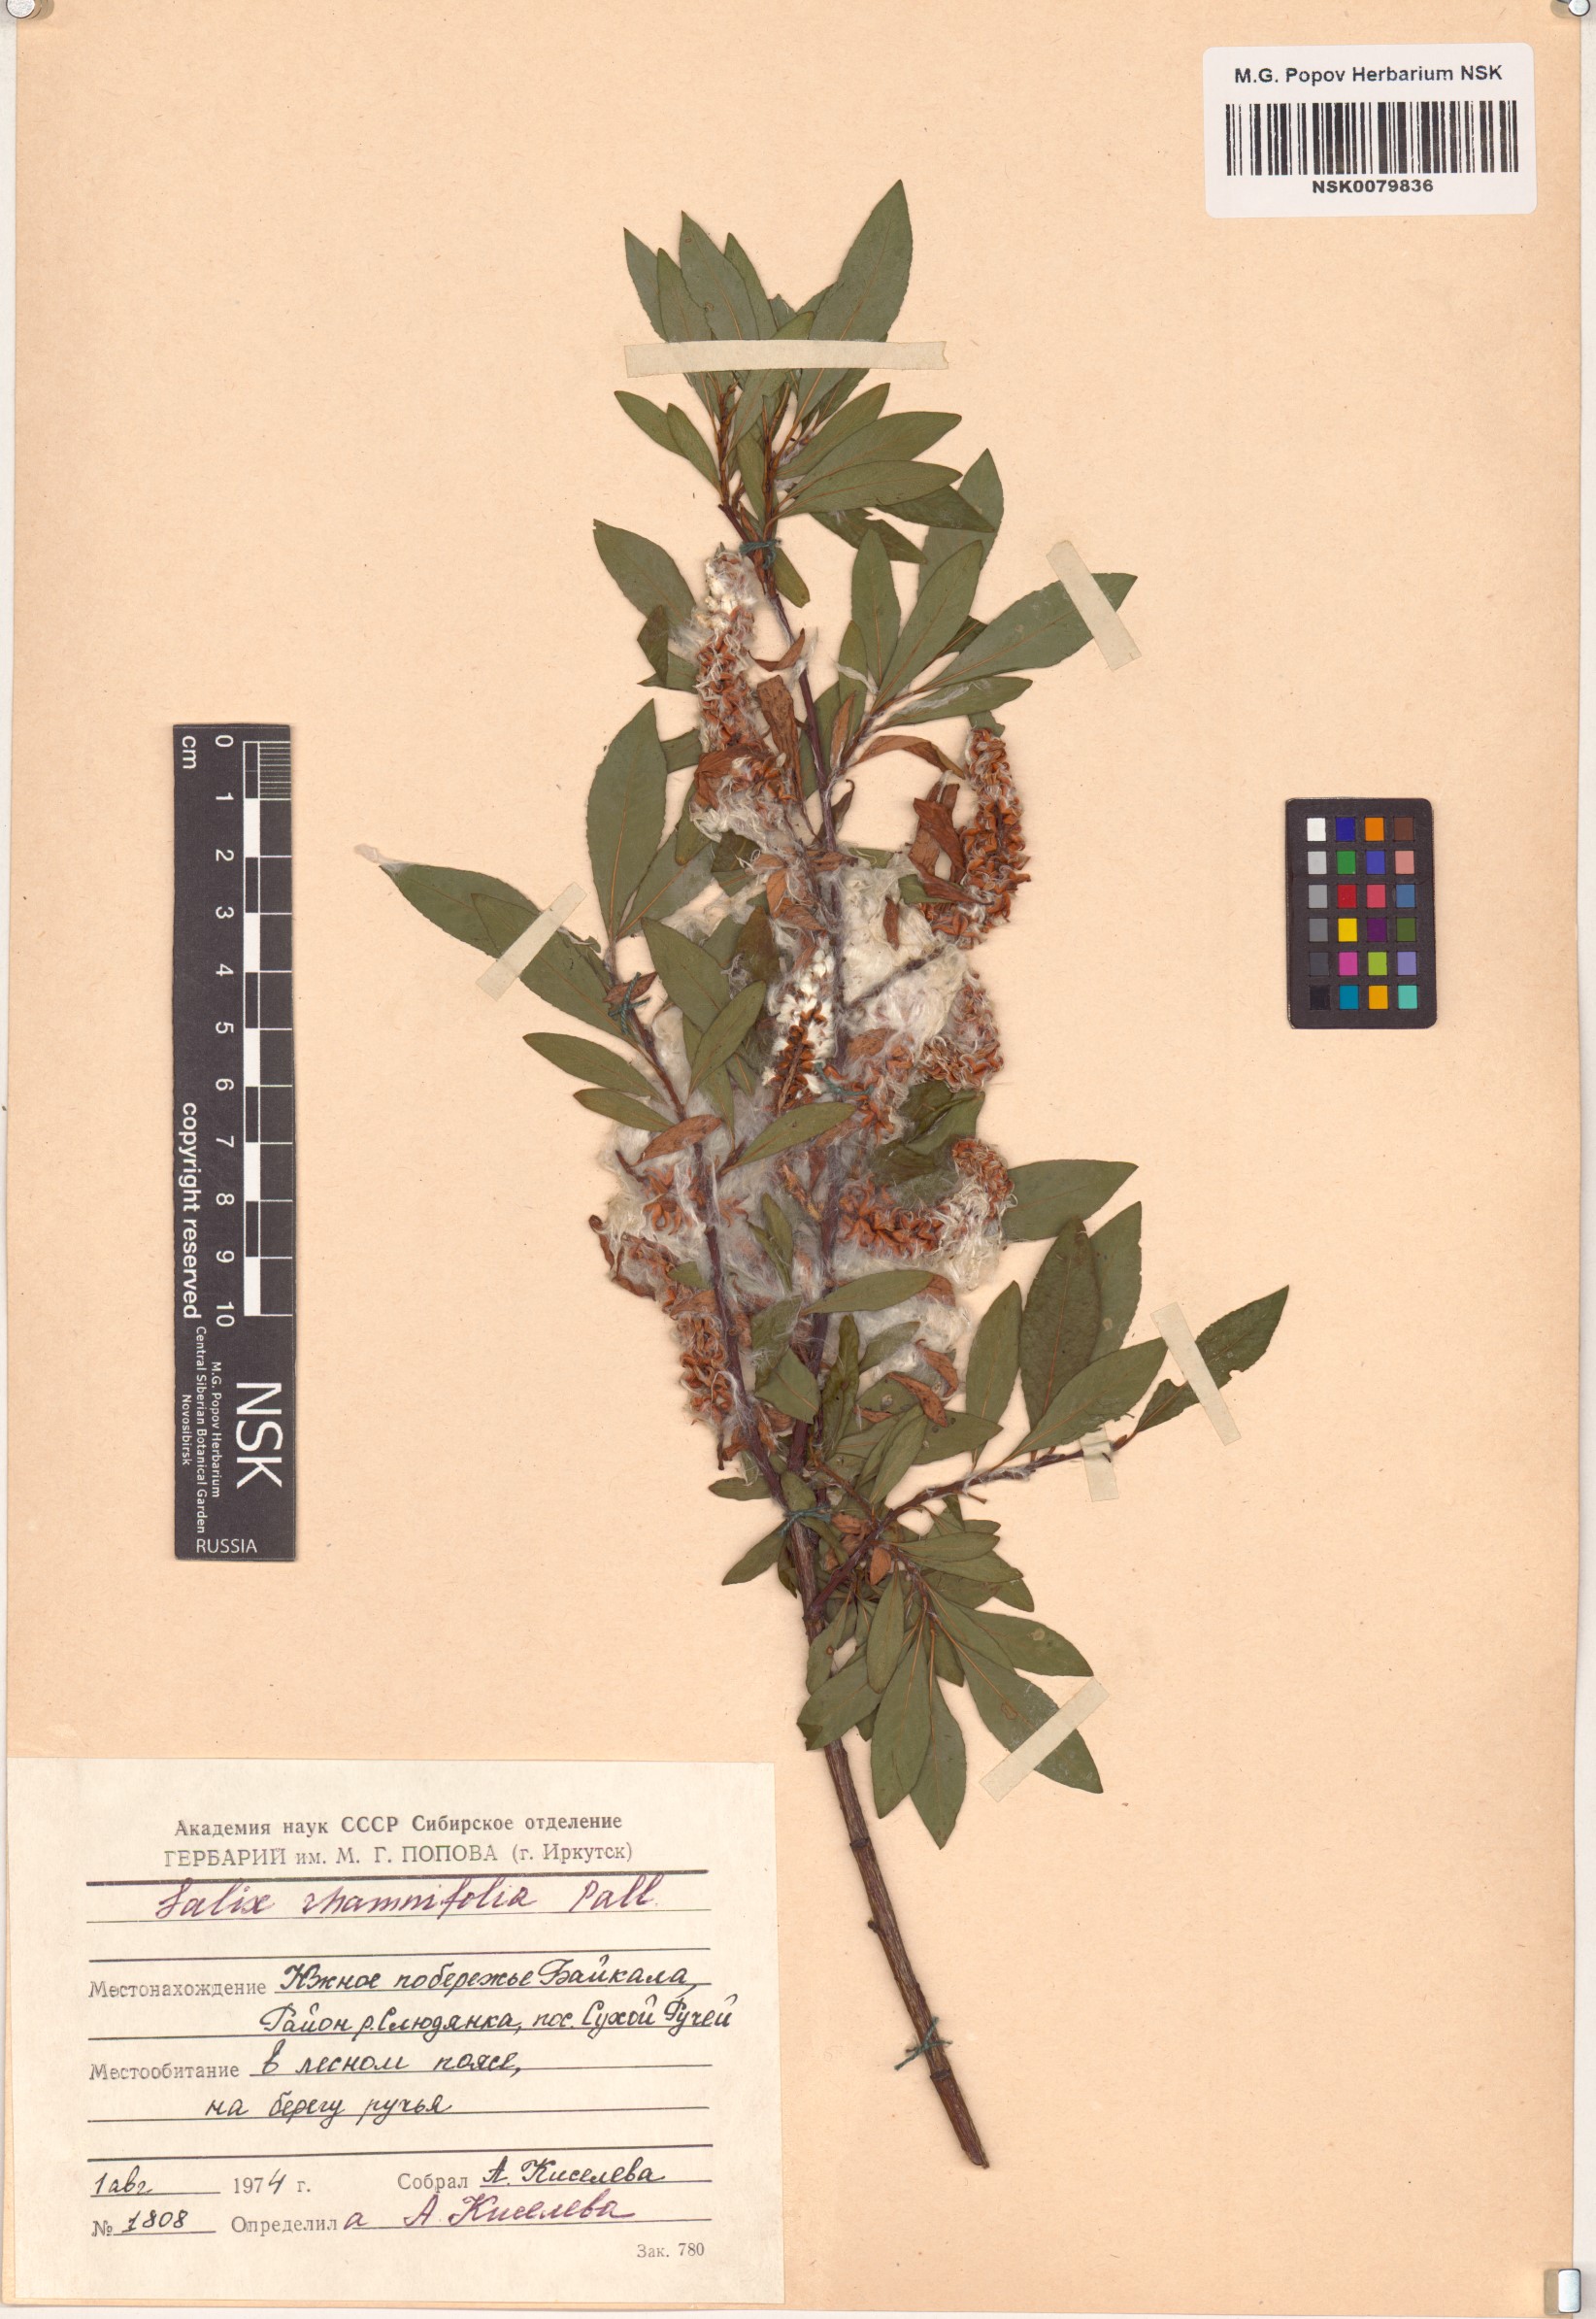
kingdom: Plantae
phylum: Tracheophyta
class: Magnoliopsida
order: Malpighiales
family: Salicaceae
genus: Salix
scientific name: Salix rhamnifolia
